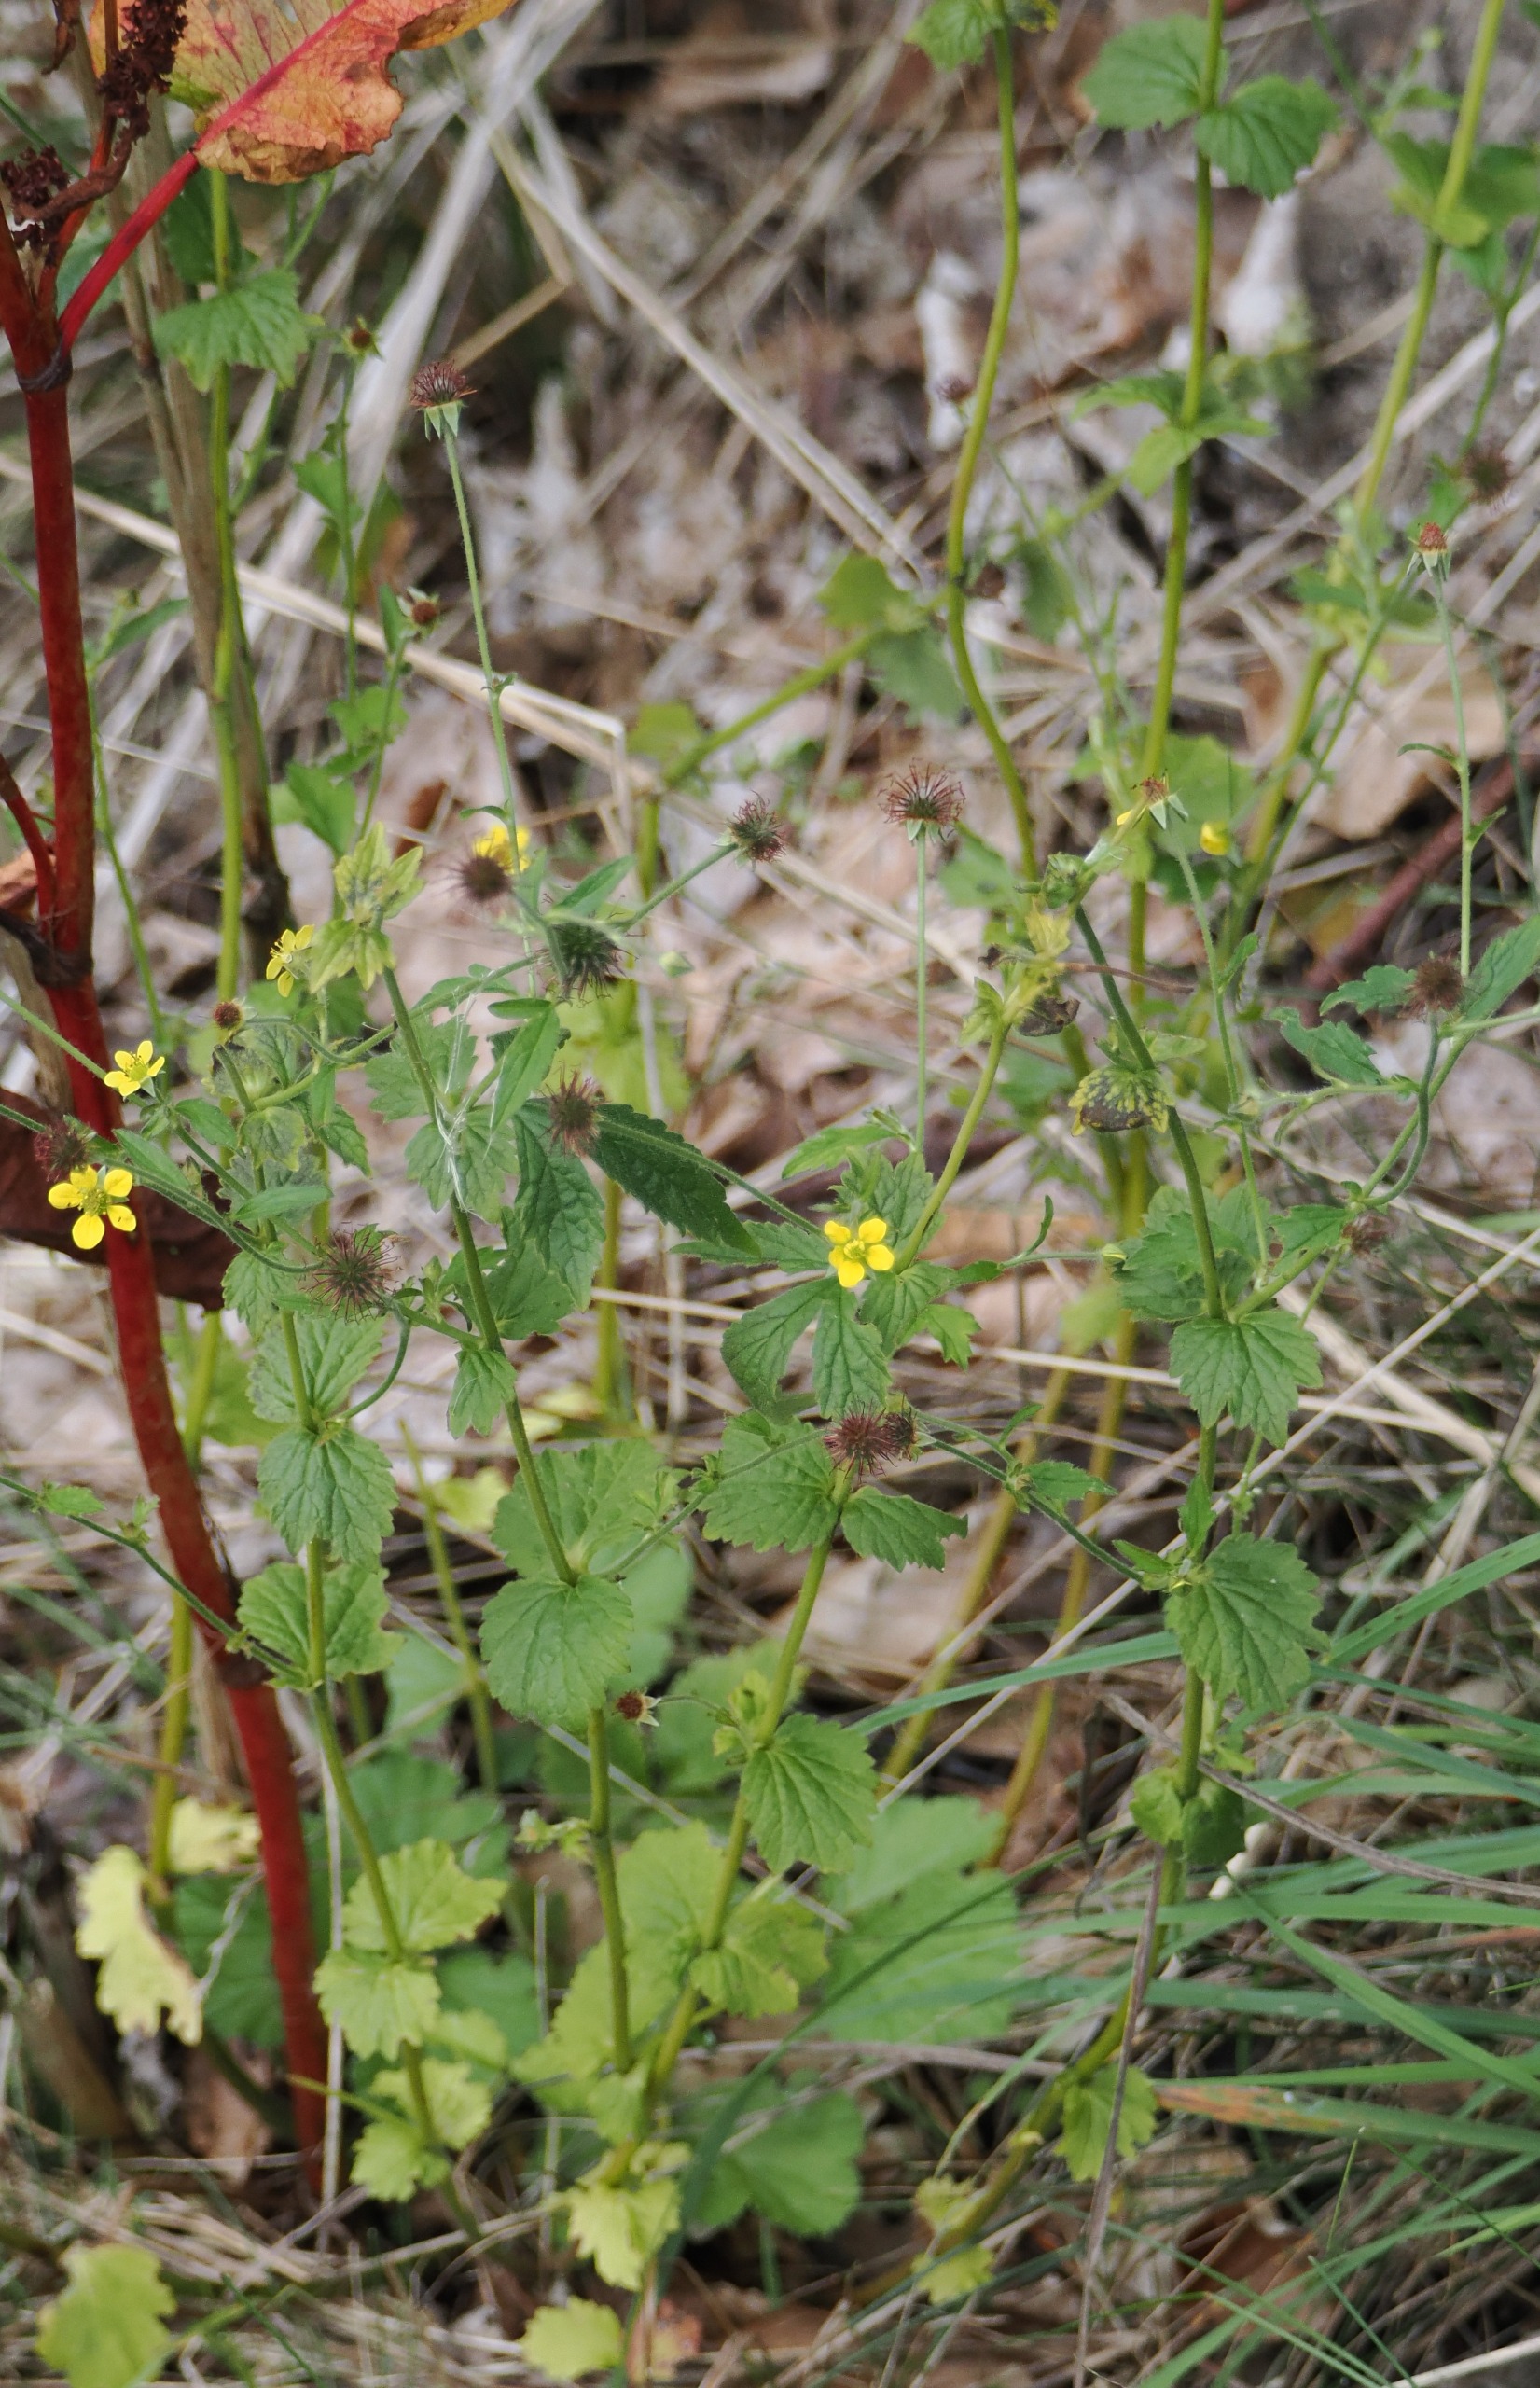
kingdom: Plantae
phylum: Tracheophyta
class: Magnoliopsida
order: Rosales
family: Rosaceae
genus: Geum
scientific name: Geum urbanum
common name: Feber-nellikerod
